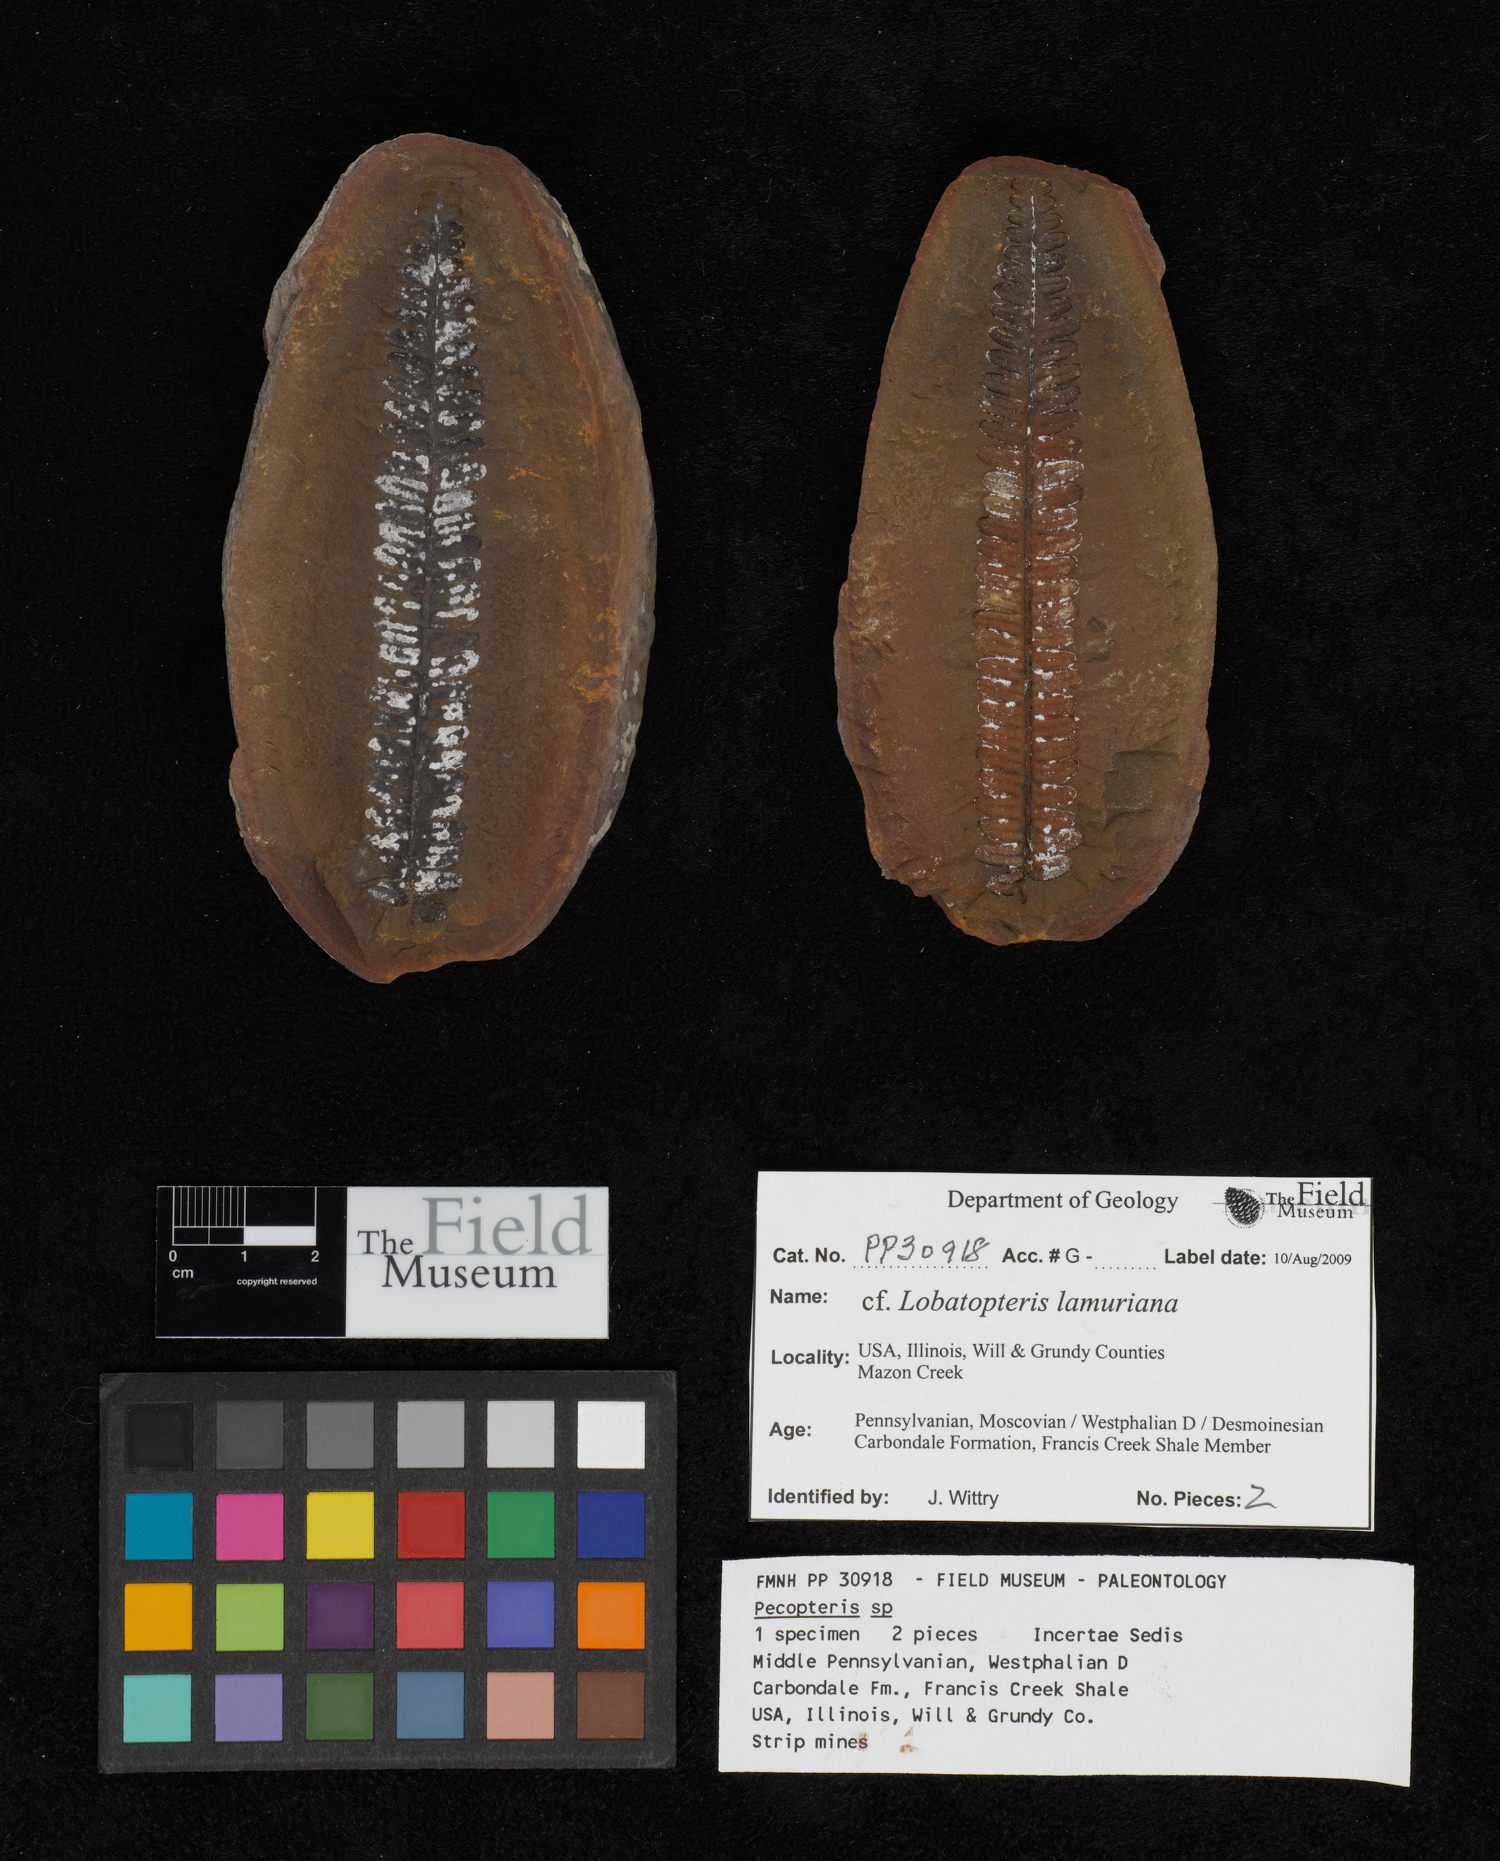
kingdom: Plantae
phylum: Tracheophyta
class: Polypodiopsida
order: Marattiales
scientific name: Marattiales
